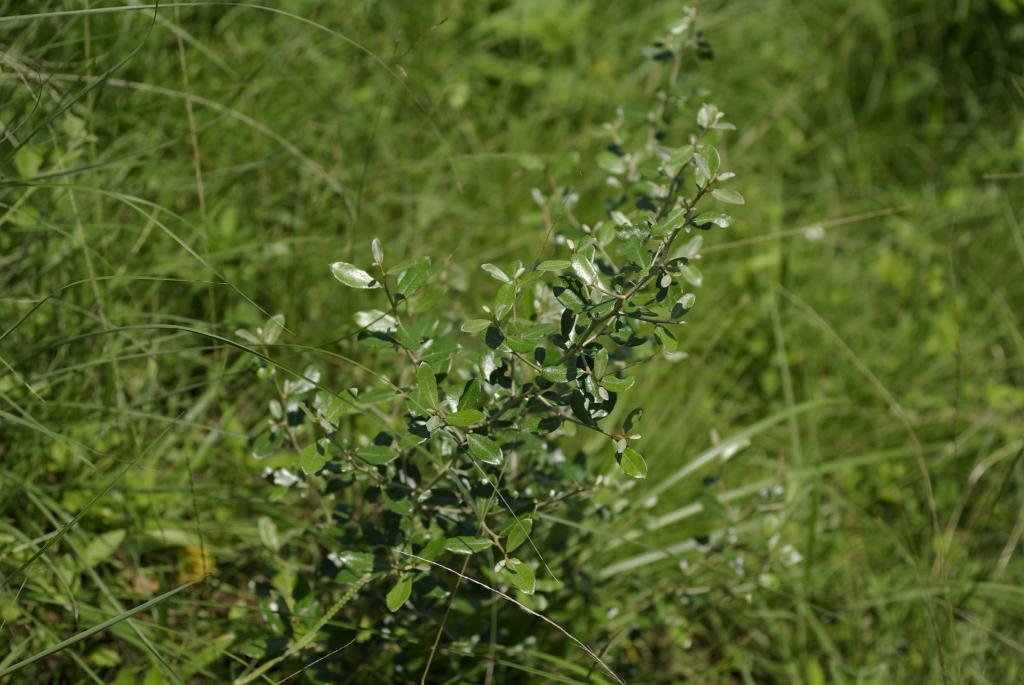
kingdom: Plantae
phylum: Tracheophyta
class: Magnoliopsida
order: Rosales
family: Elaeagnaceae
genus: Elaeagnus
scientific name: Elaeagnus oldhamii
